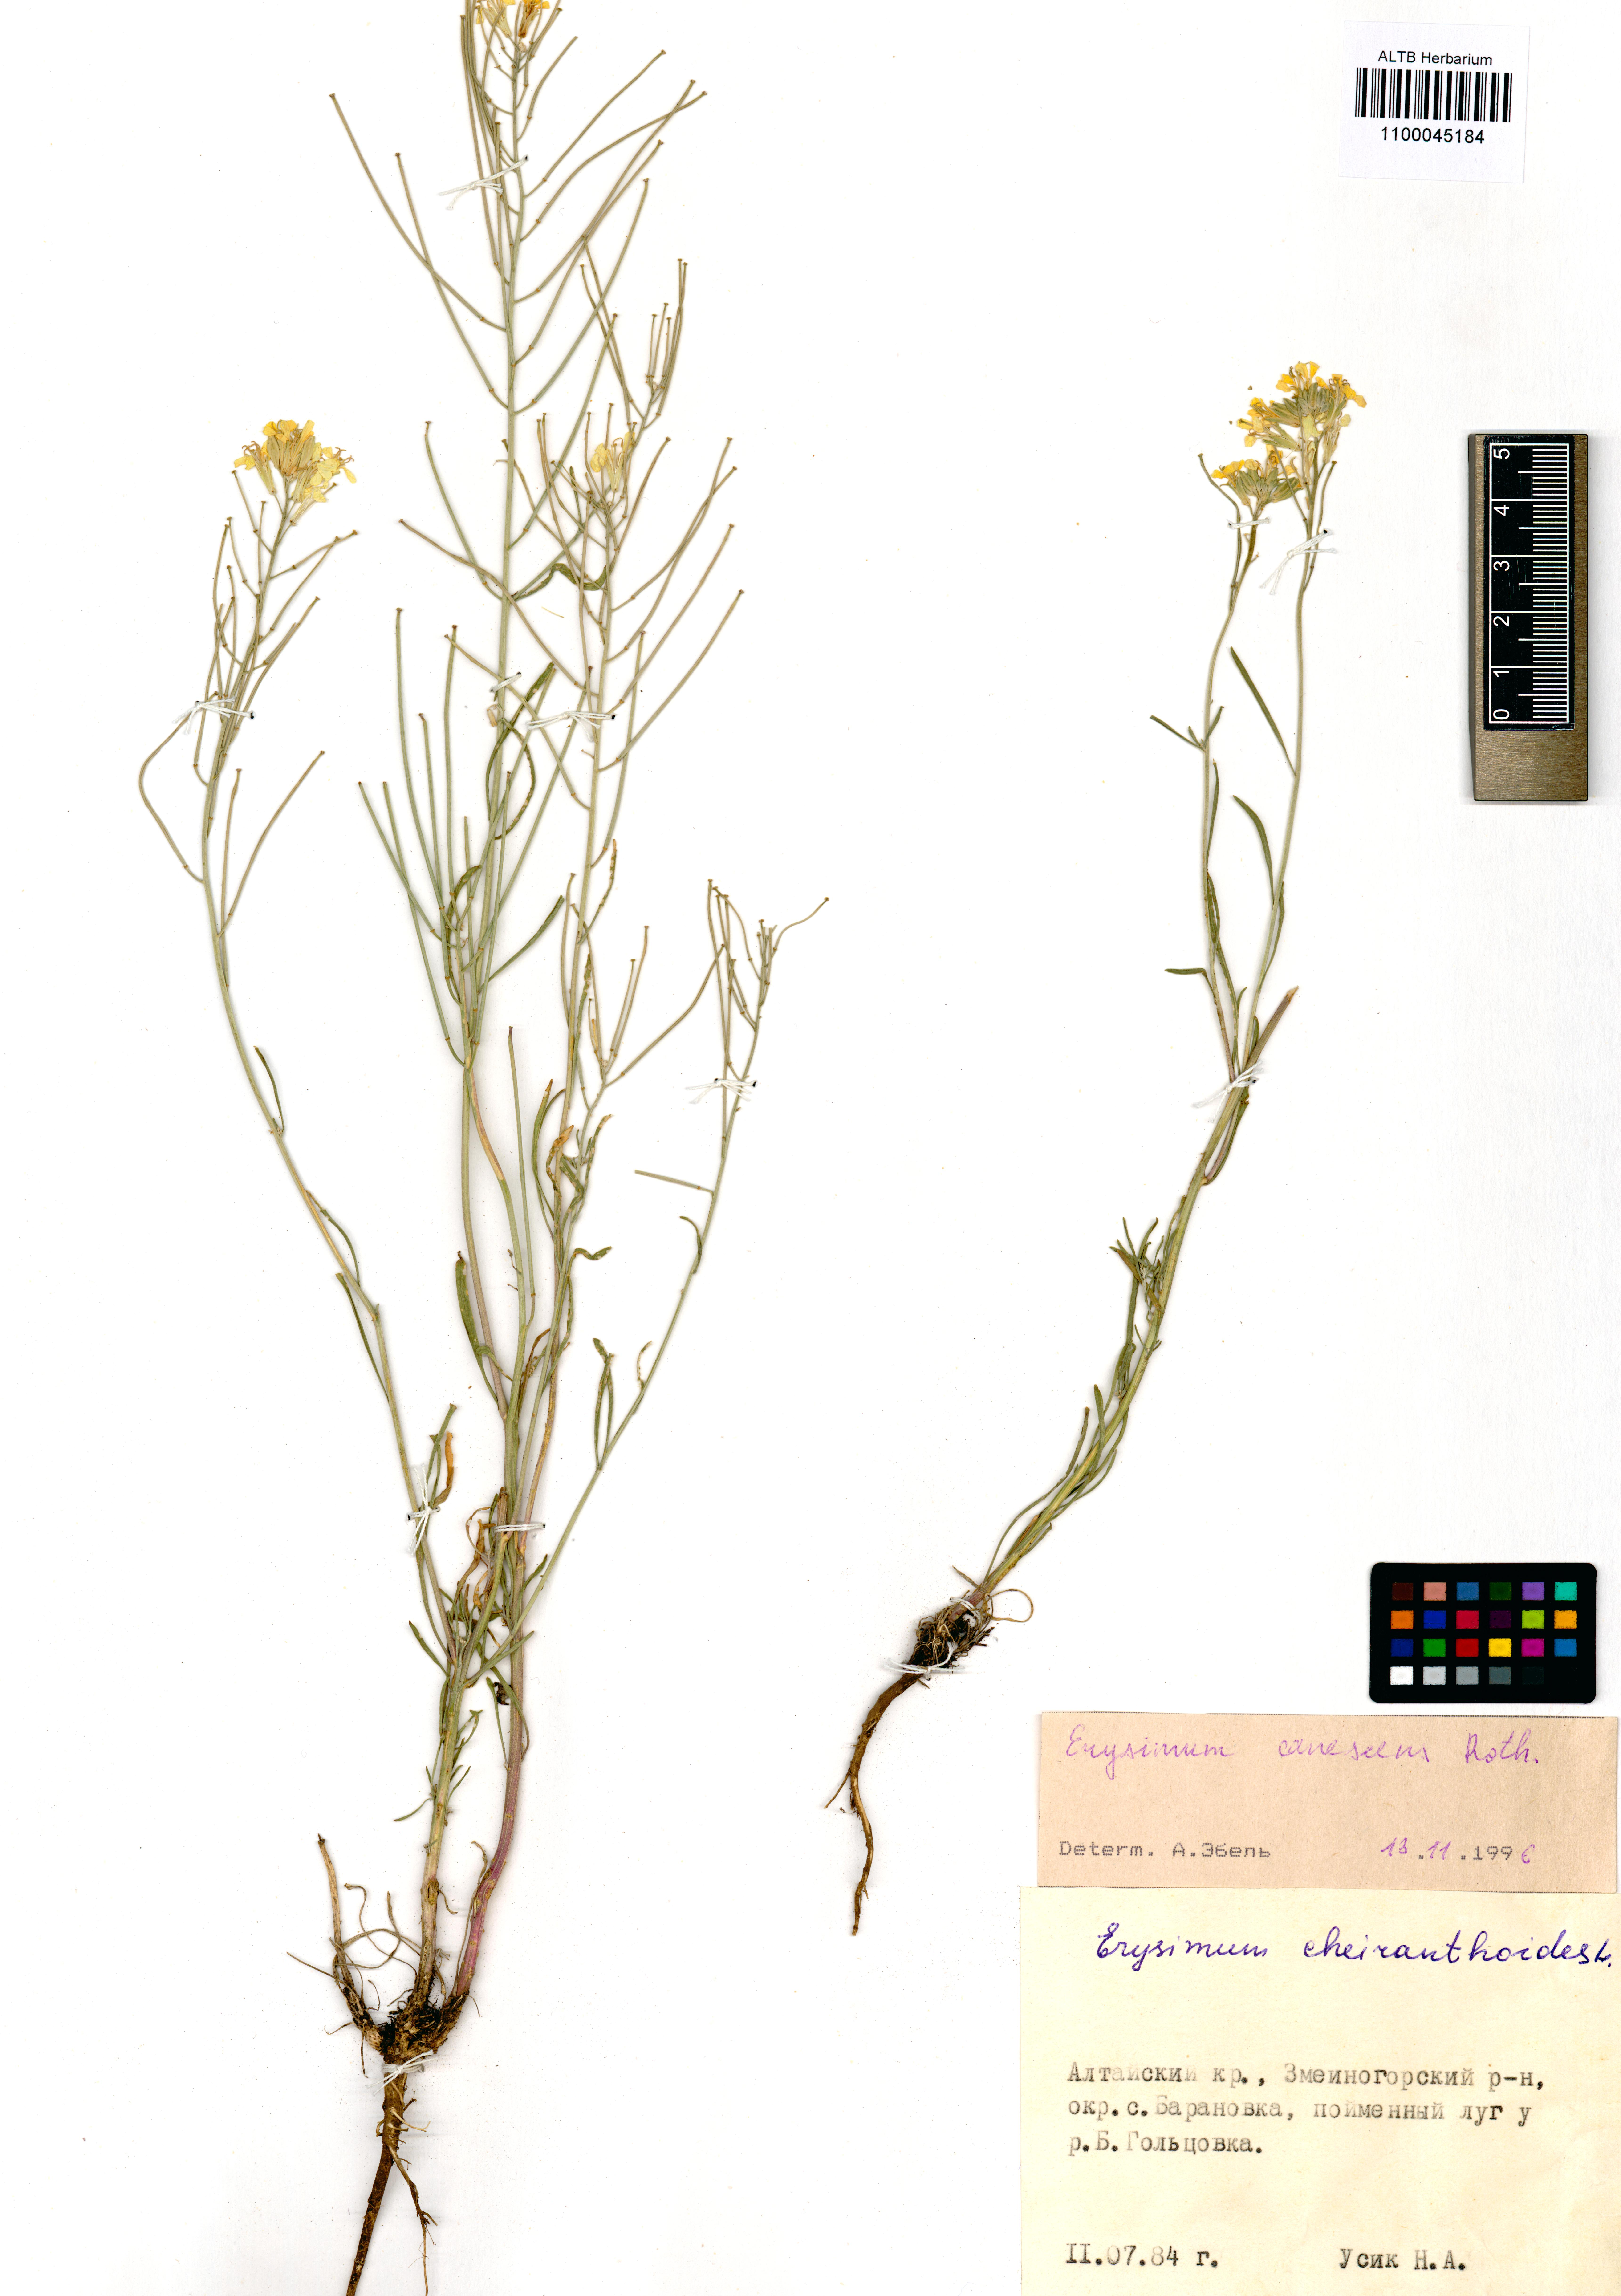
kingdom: Plantae
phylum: Tracheophyta
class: Magnoliopsida
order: Brassicales
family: Brassicaceae
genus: Erysimum
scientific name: Erysimum canescens
